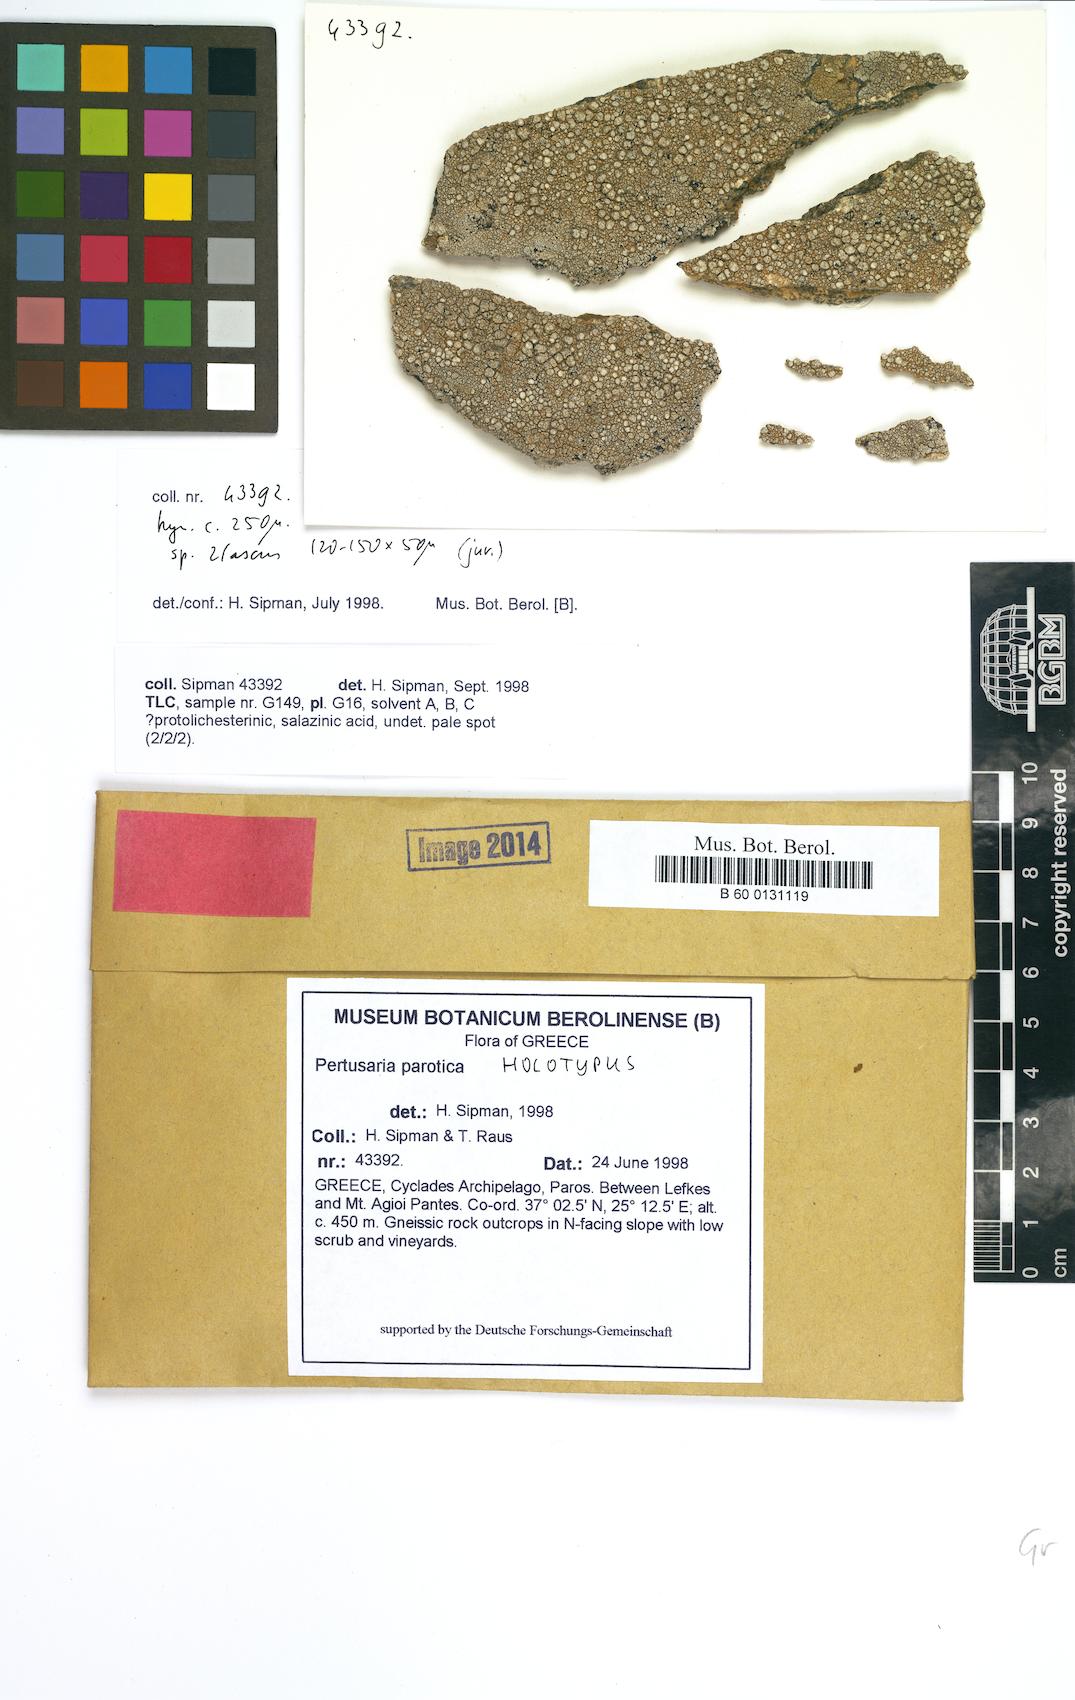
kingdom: Fungi
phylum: Ascomycota
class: Lecanoromycetes
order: Pertusariales
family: Pertusariaceae
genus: Pertusaria
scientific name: Pertusaria
